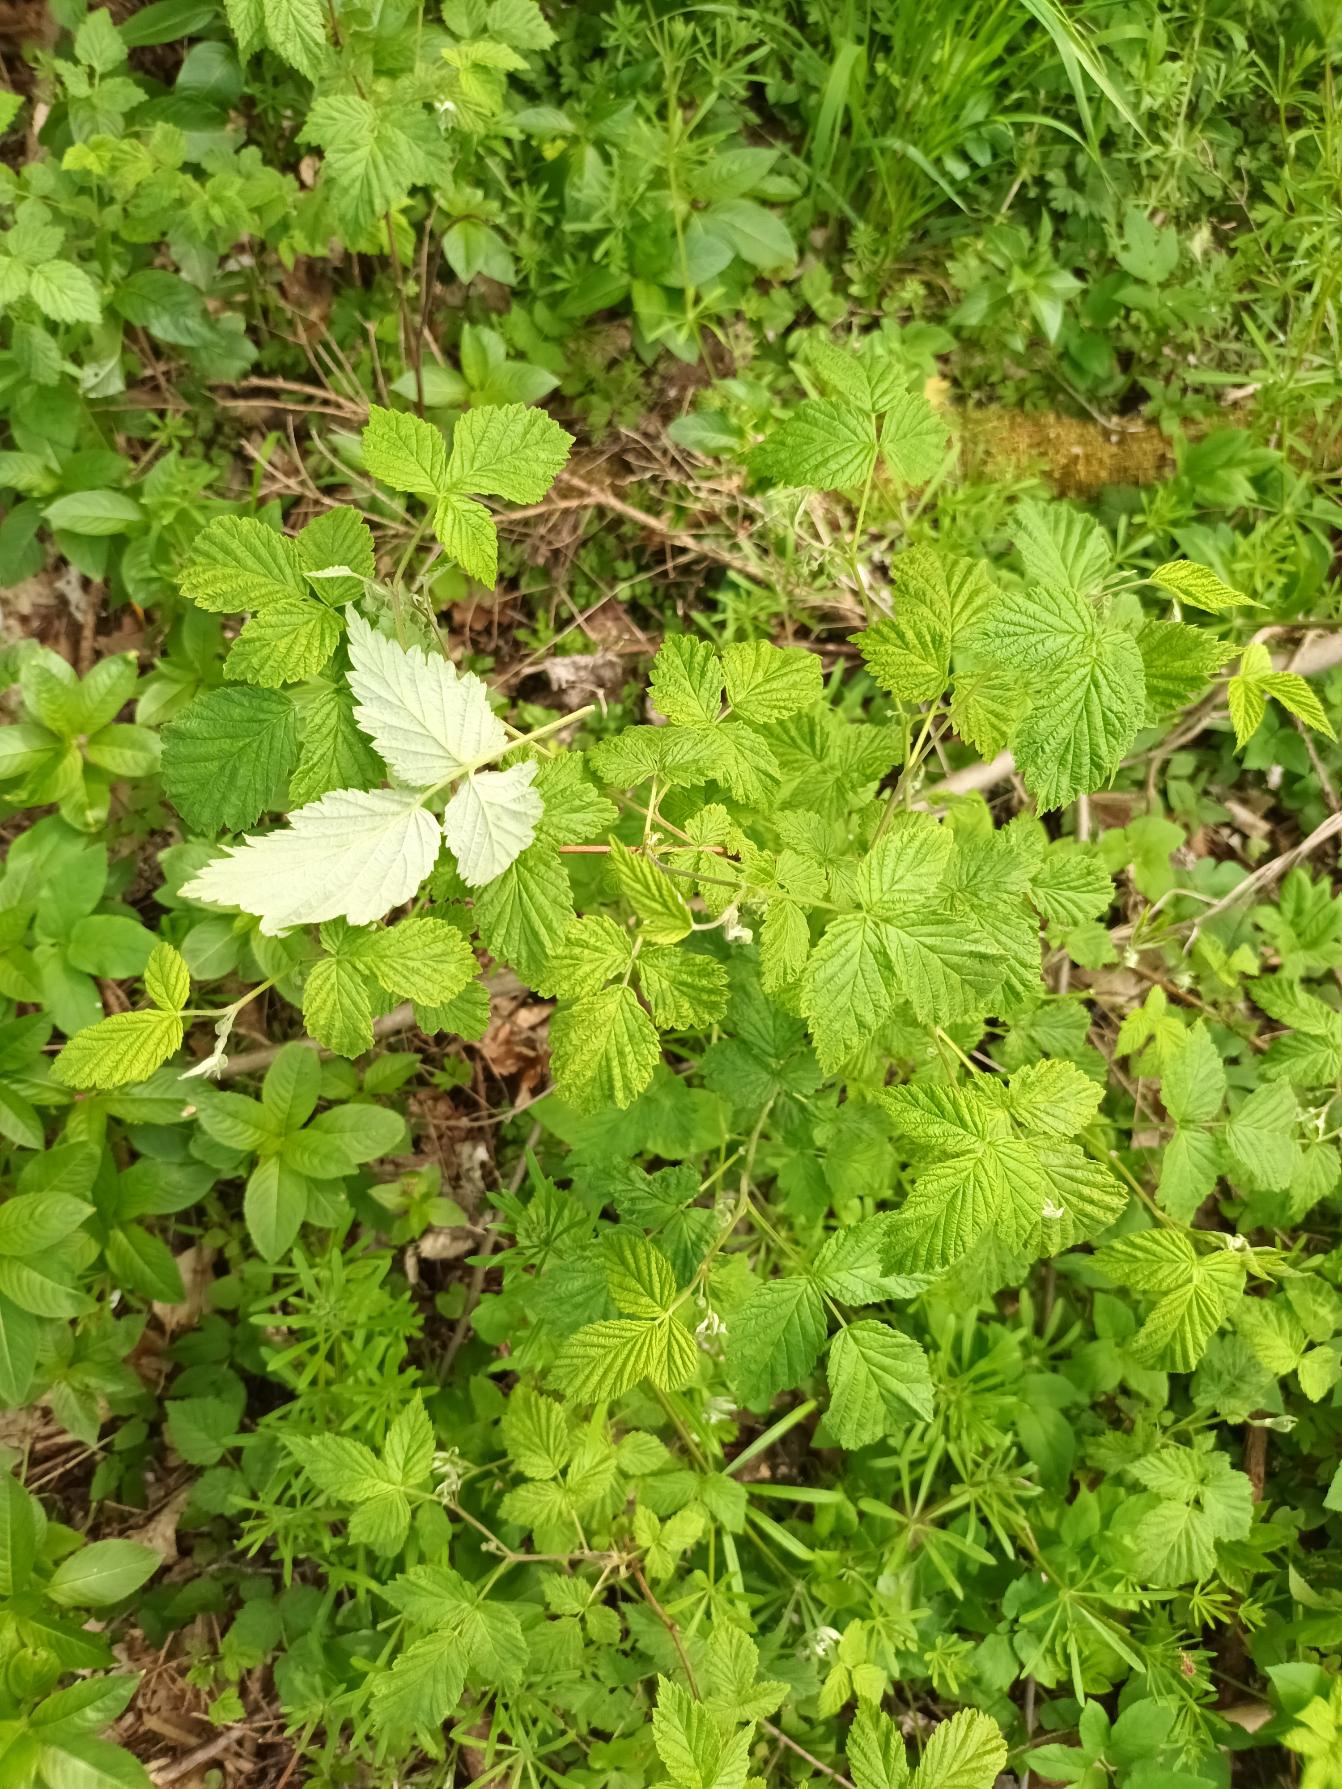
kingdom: Plantae
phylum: Tracheophyta
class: Magnoliopsida
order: Rosales
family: Rosaceae
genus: Rubus
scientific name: Rubus idaeus
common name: Hindbær
